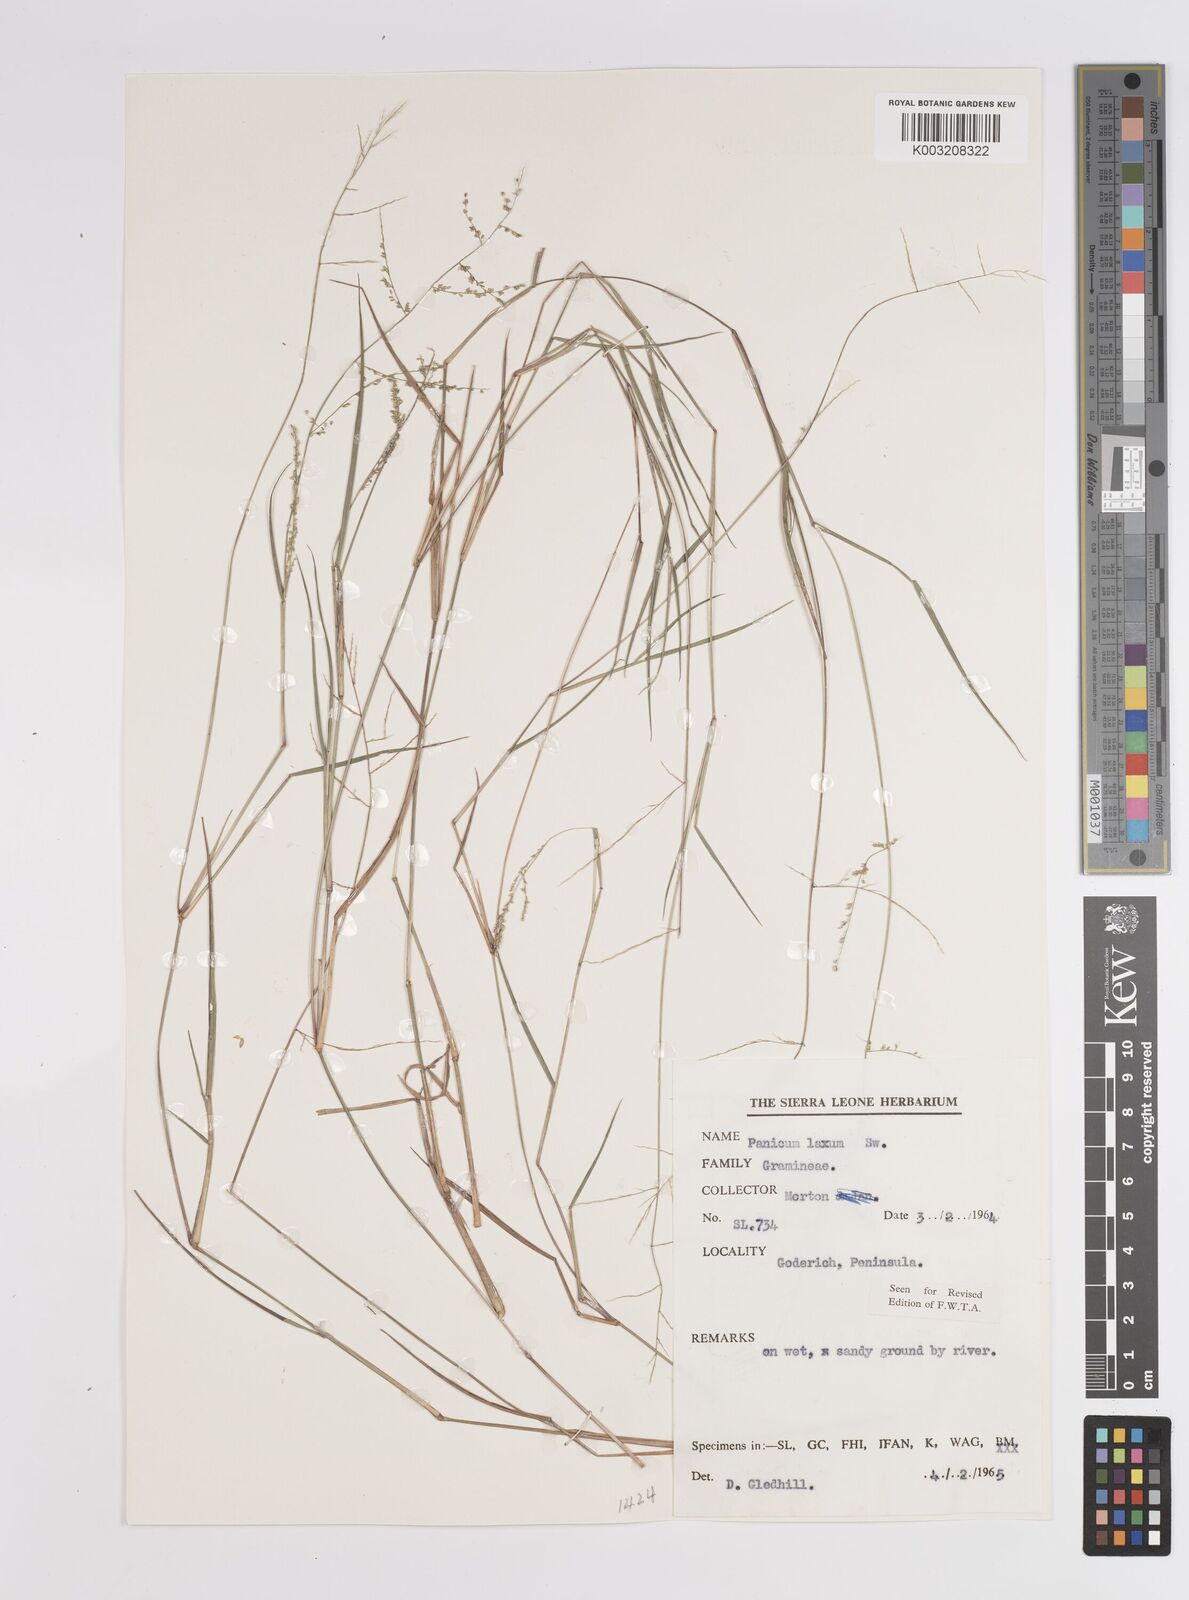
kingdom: Plantae
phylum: Tracheophyta
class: Liliopsida
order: Poales
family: Poaceae
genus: Steinchisma
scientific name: Steinchisma laxum
